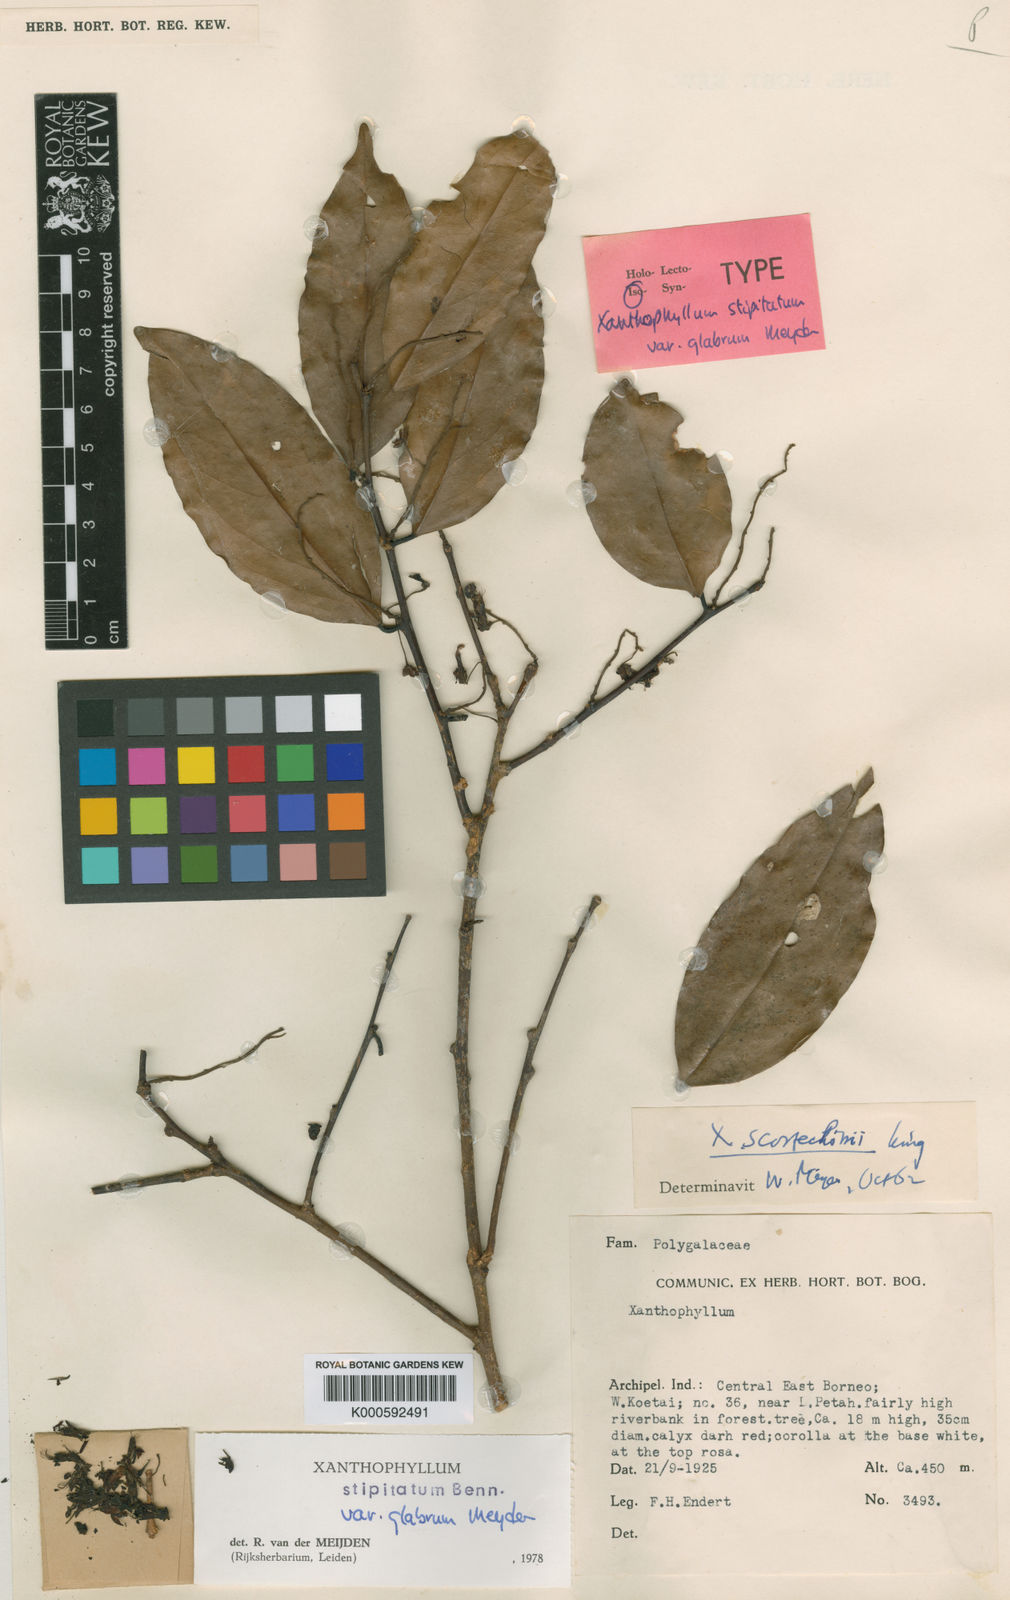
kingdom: Plantae
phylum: Tracheophyta
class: Magnoliopsida
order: Fabales
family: Polygalaceae
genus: Xanthophyllum
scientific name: Xanthophyllum stipitatum
